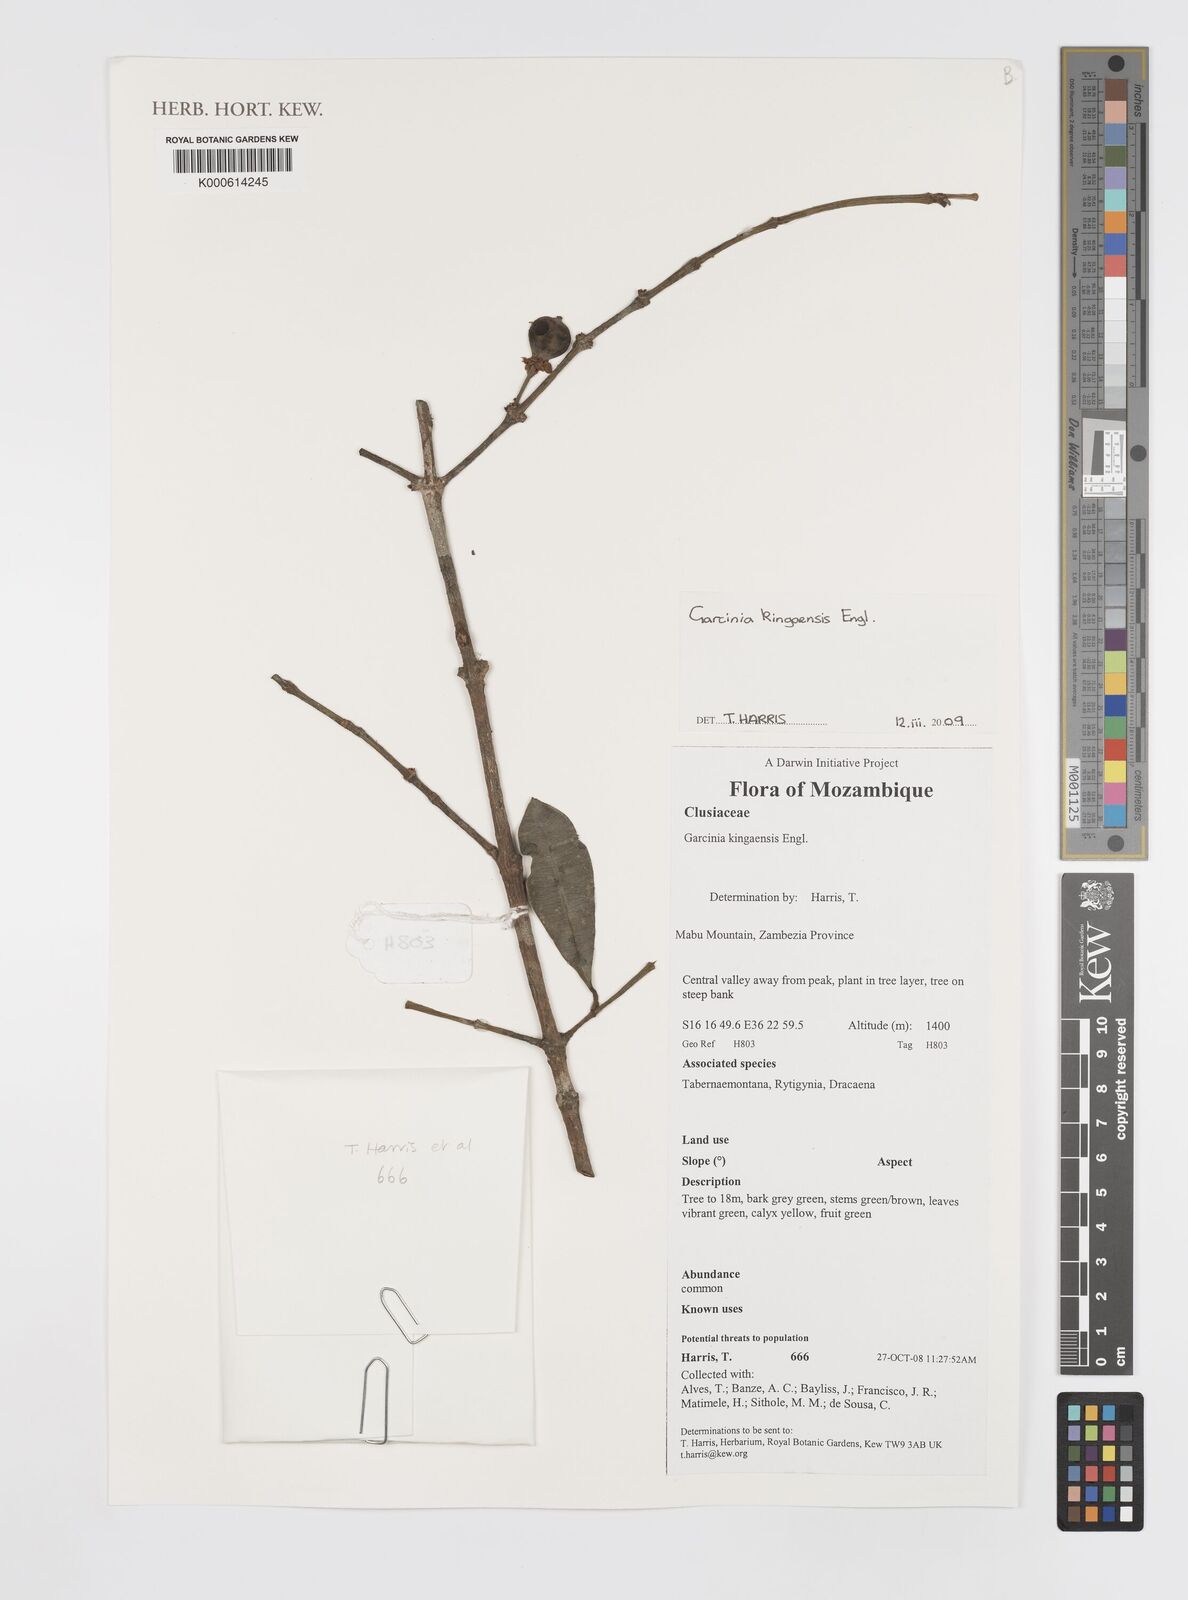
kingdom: Plantae
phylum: Tracheophyta
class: Magnoliopsida
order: Malpighiales
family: Clusiaceae
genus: Garcinia
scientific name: Garcinia kingaensis
